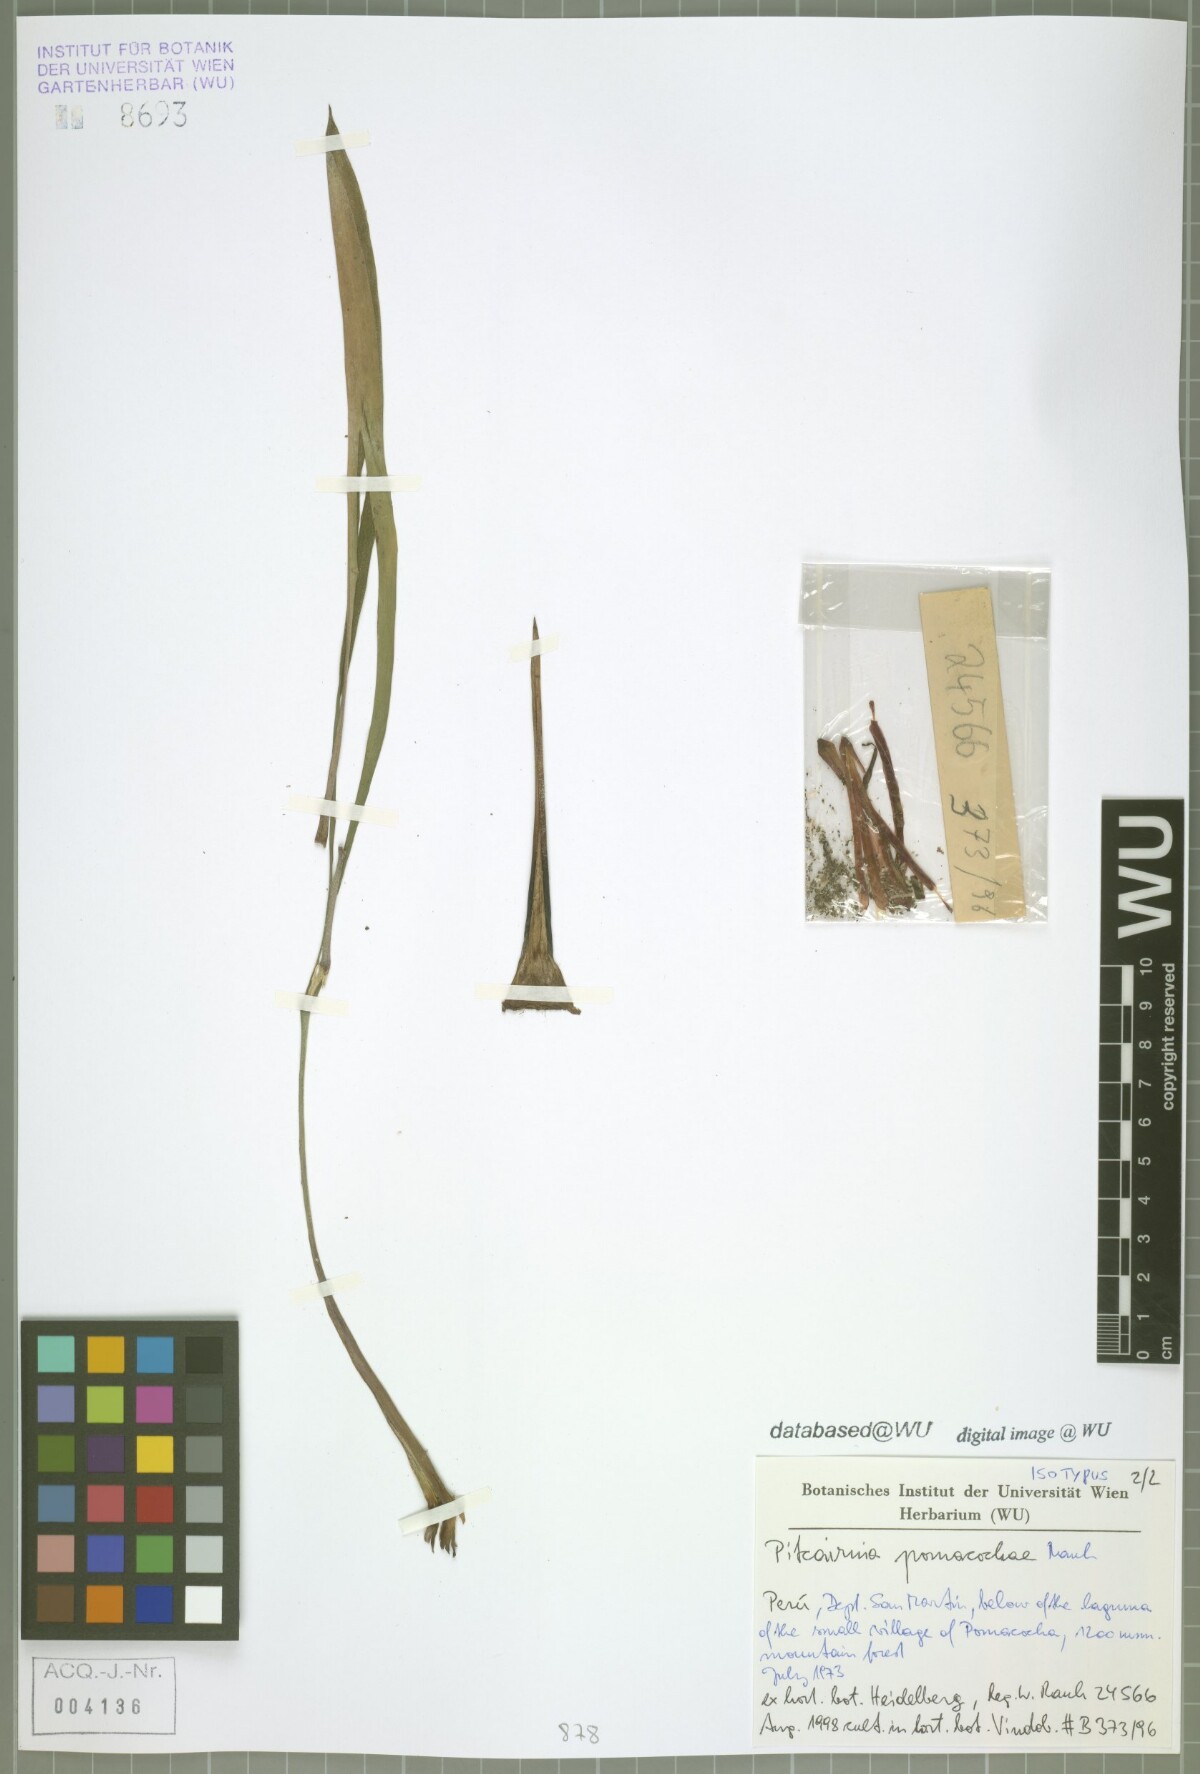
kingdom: Plantae
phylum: Tracheophyta
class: Liliopsida
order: Poales
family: Bromeliaceae
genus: Pitcairnia
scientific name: Pitcairnia pomacochae
